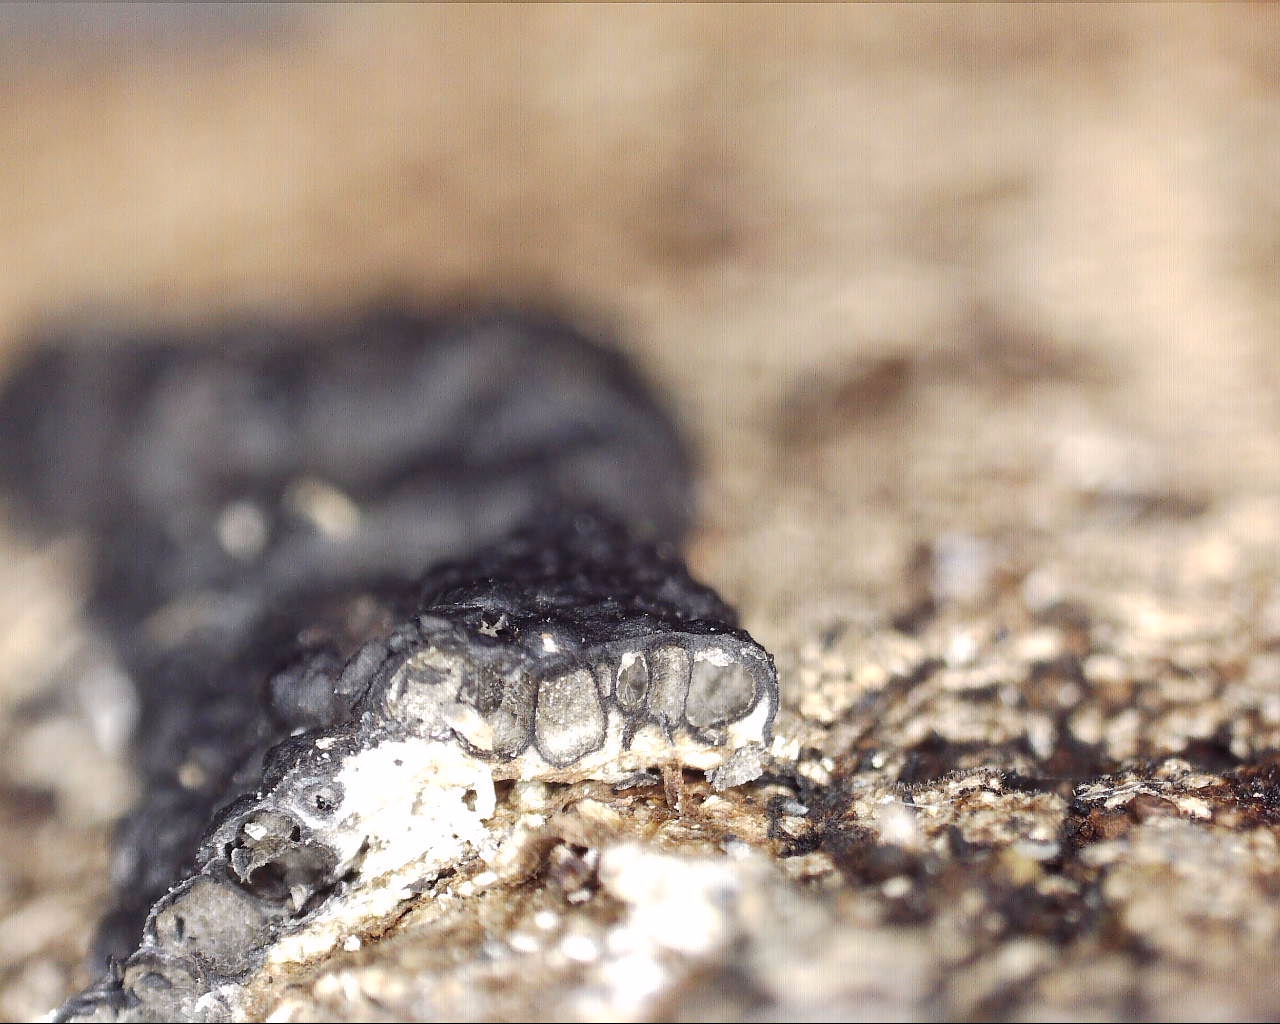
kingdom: Fungi
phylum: Ascomycota
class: Sordariomycetes
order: Xylariales
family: Xylariaceae
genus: Nemania
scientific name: Nemania
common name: kuldyne
